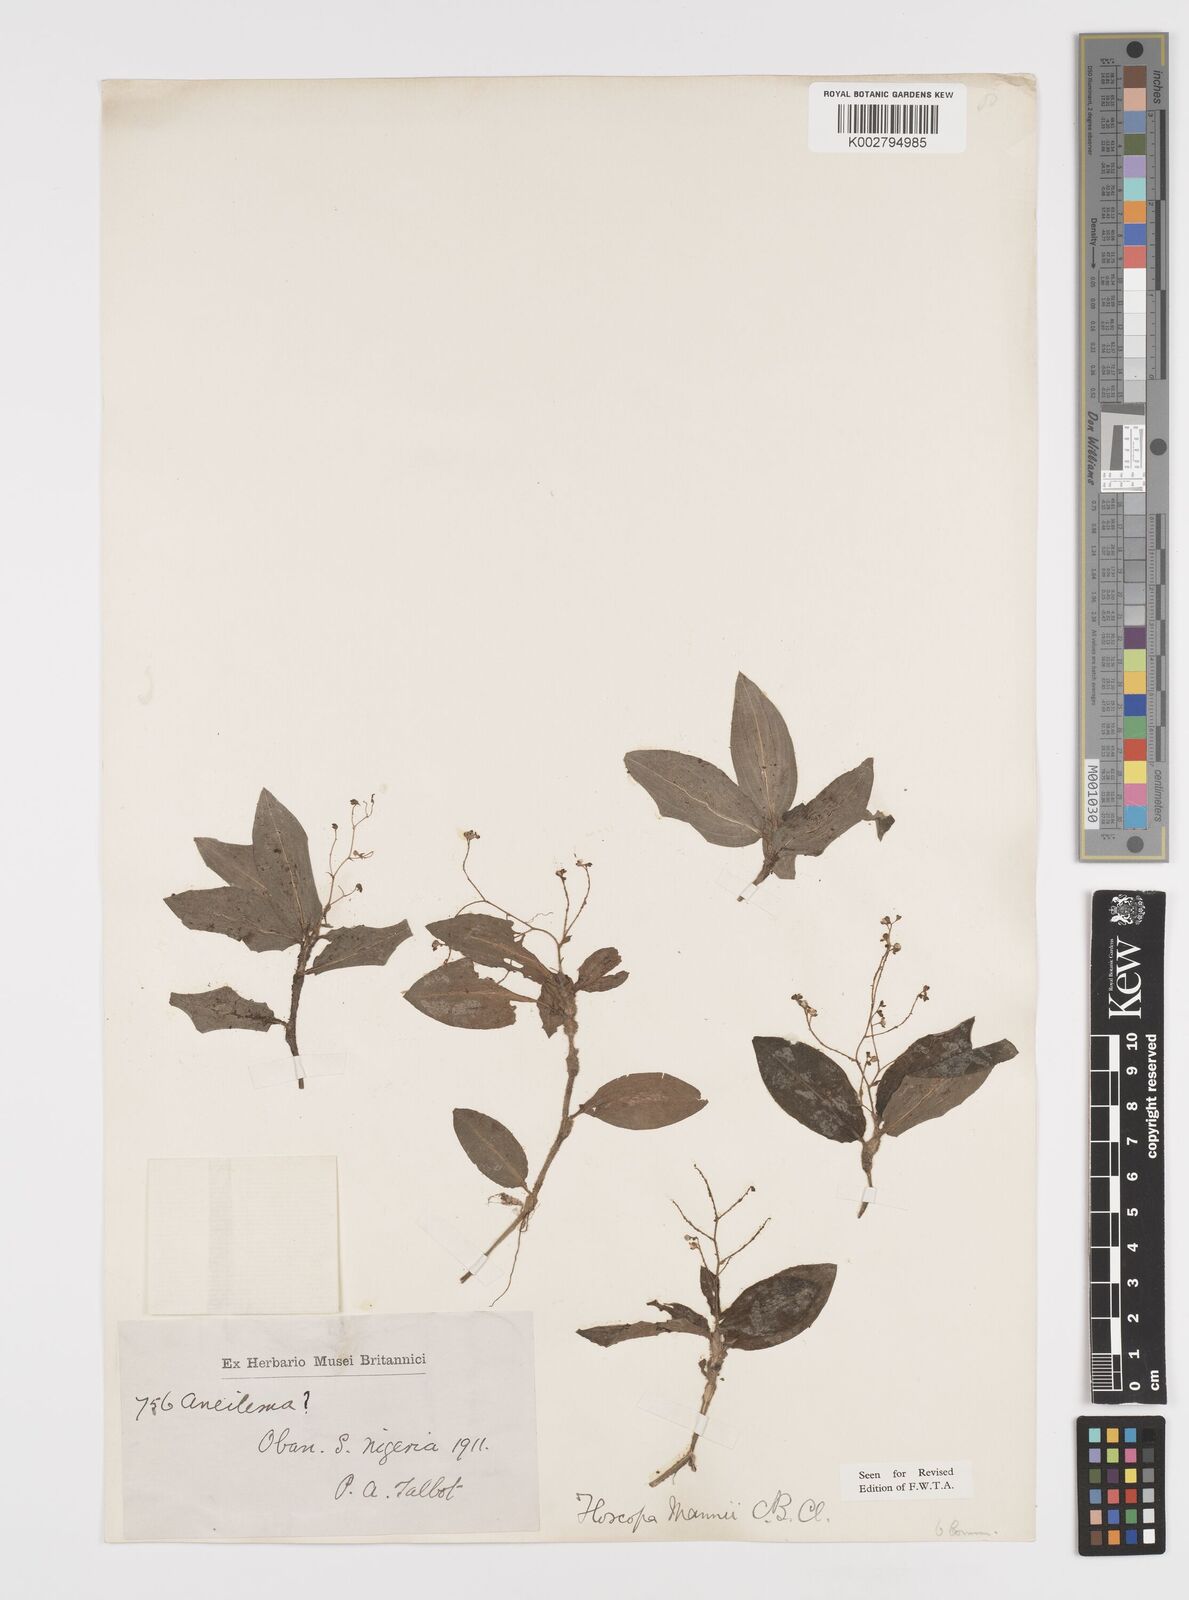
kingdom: Plantae
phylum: Tracheophyta
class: Liliopsida
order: Commelinales
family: Commelinaceae
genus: Floscopa
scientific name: Floscopa mannii
